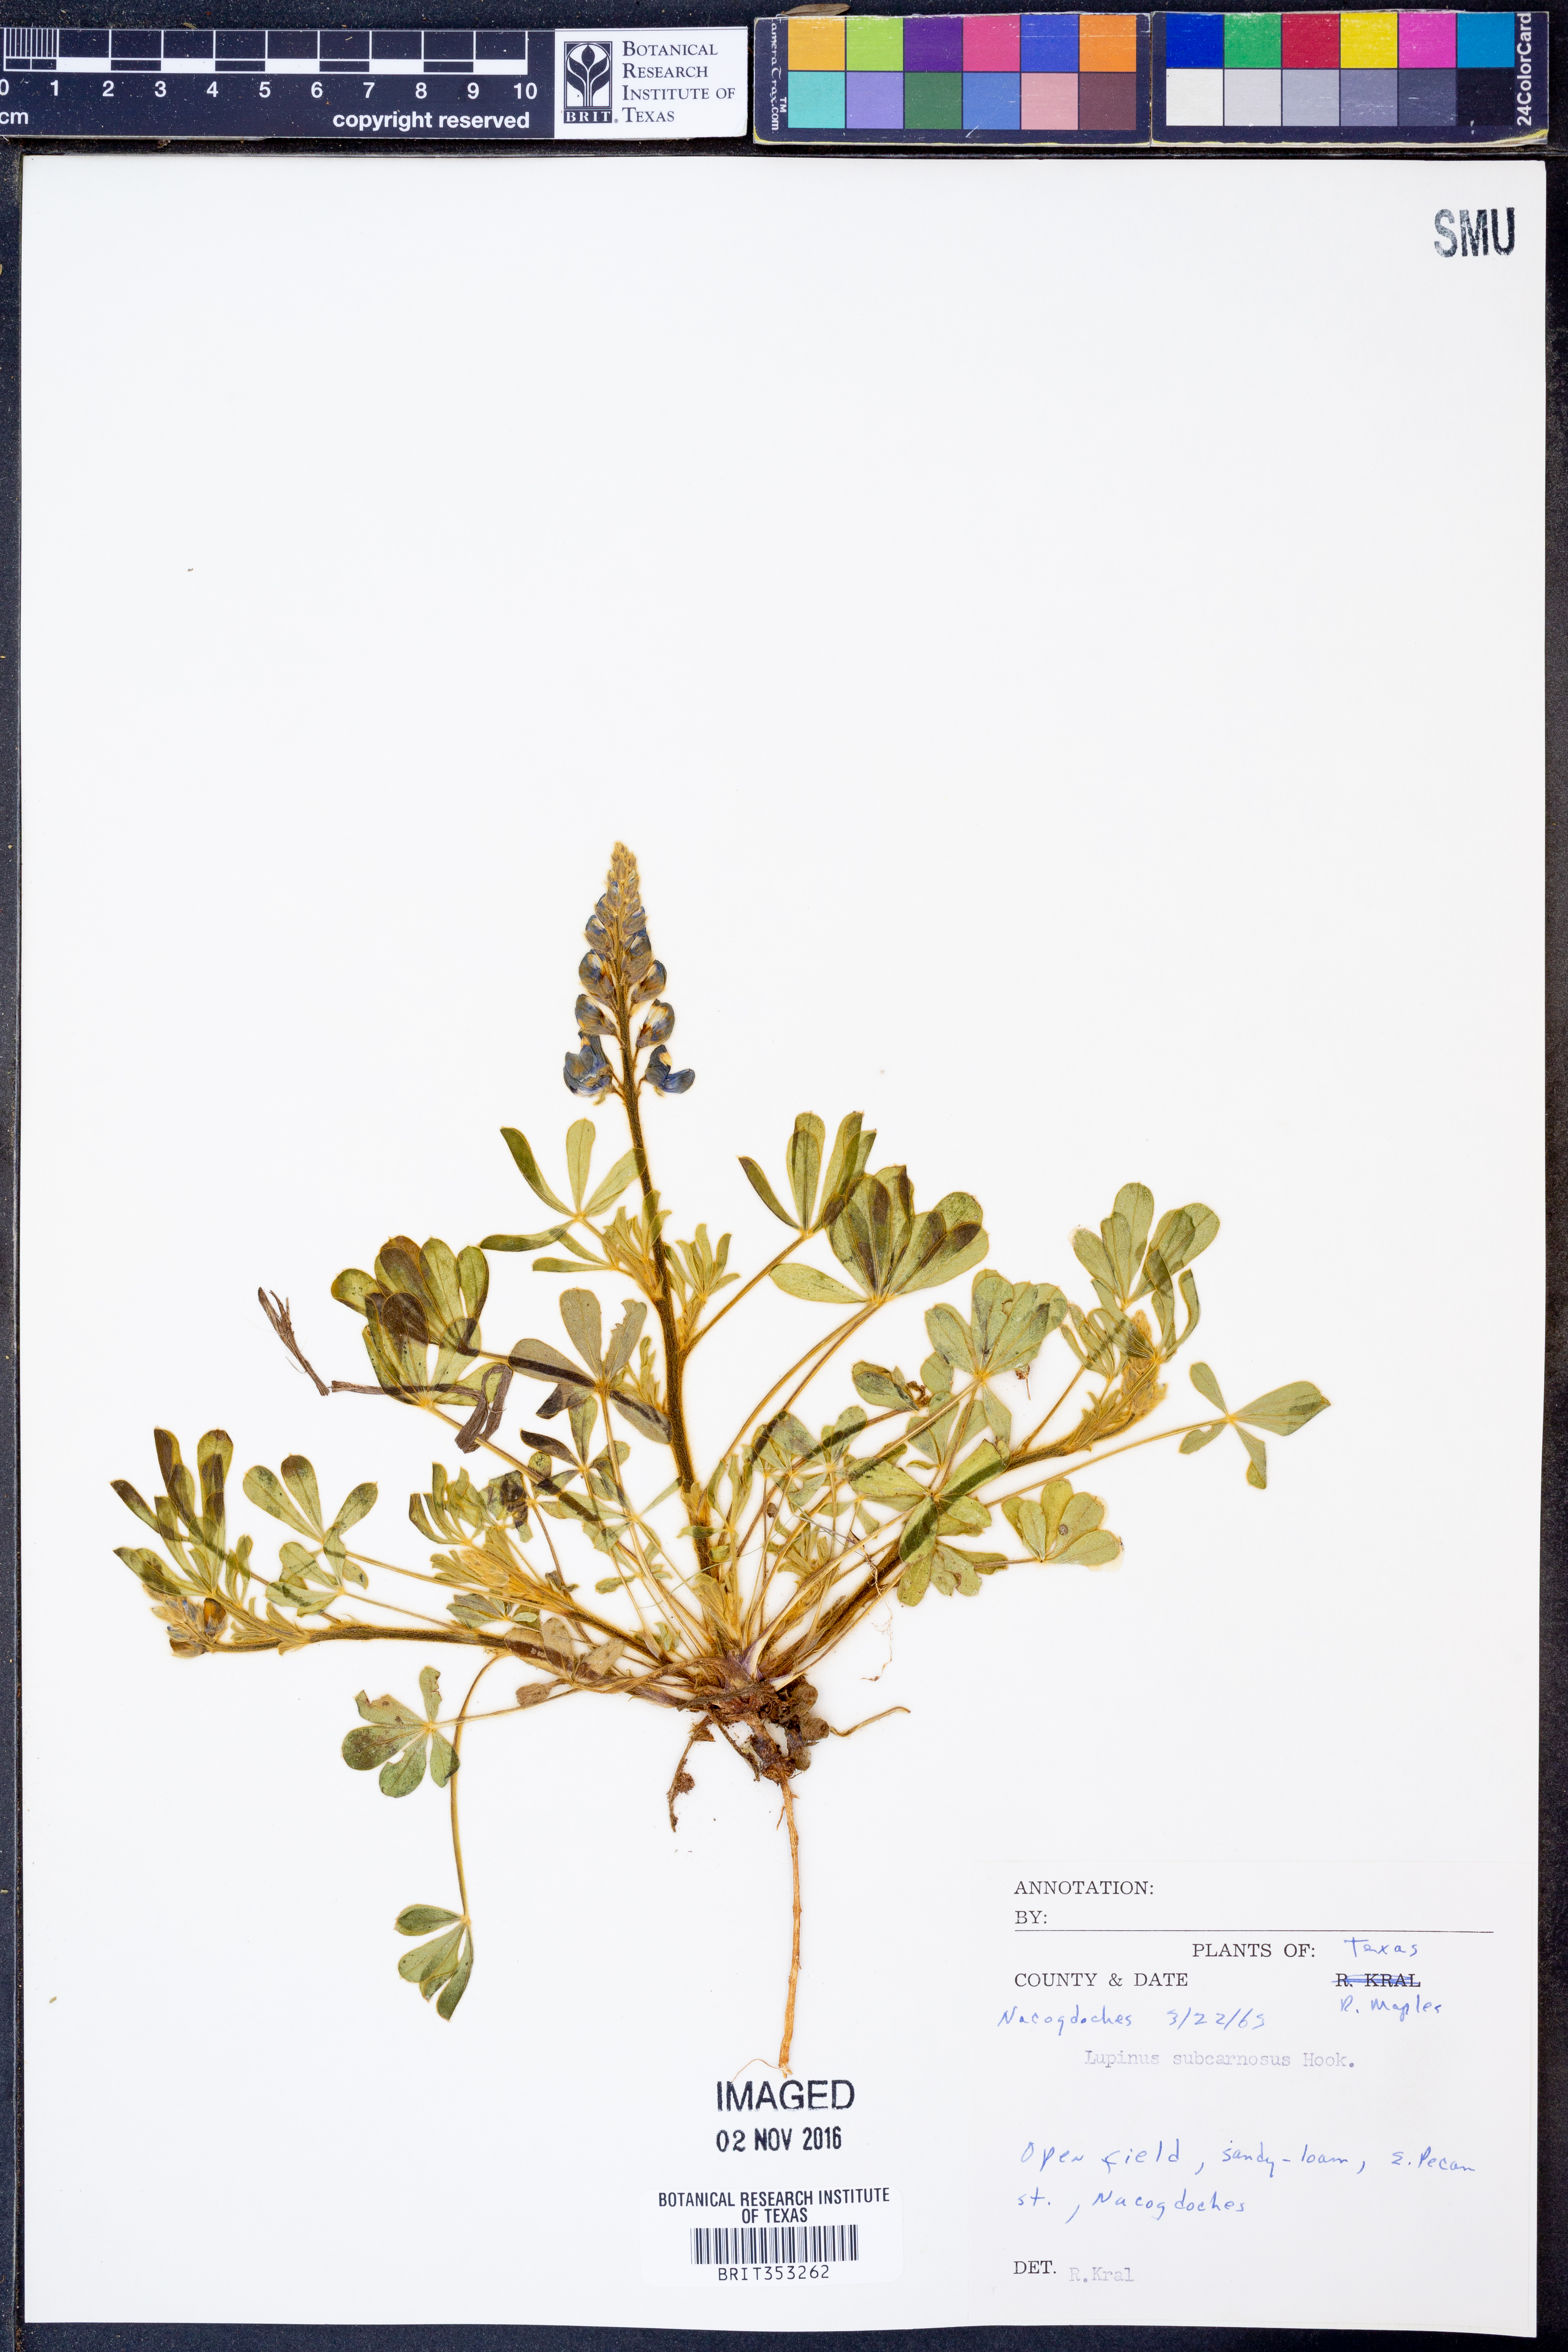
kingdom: Plantae
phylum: Tracheophyta
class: Magnoliopsida
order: Fabales
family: Fabaceae
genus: Lupinus
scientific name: Lupinus subcarnosus
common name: Texas bluebonnet
